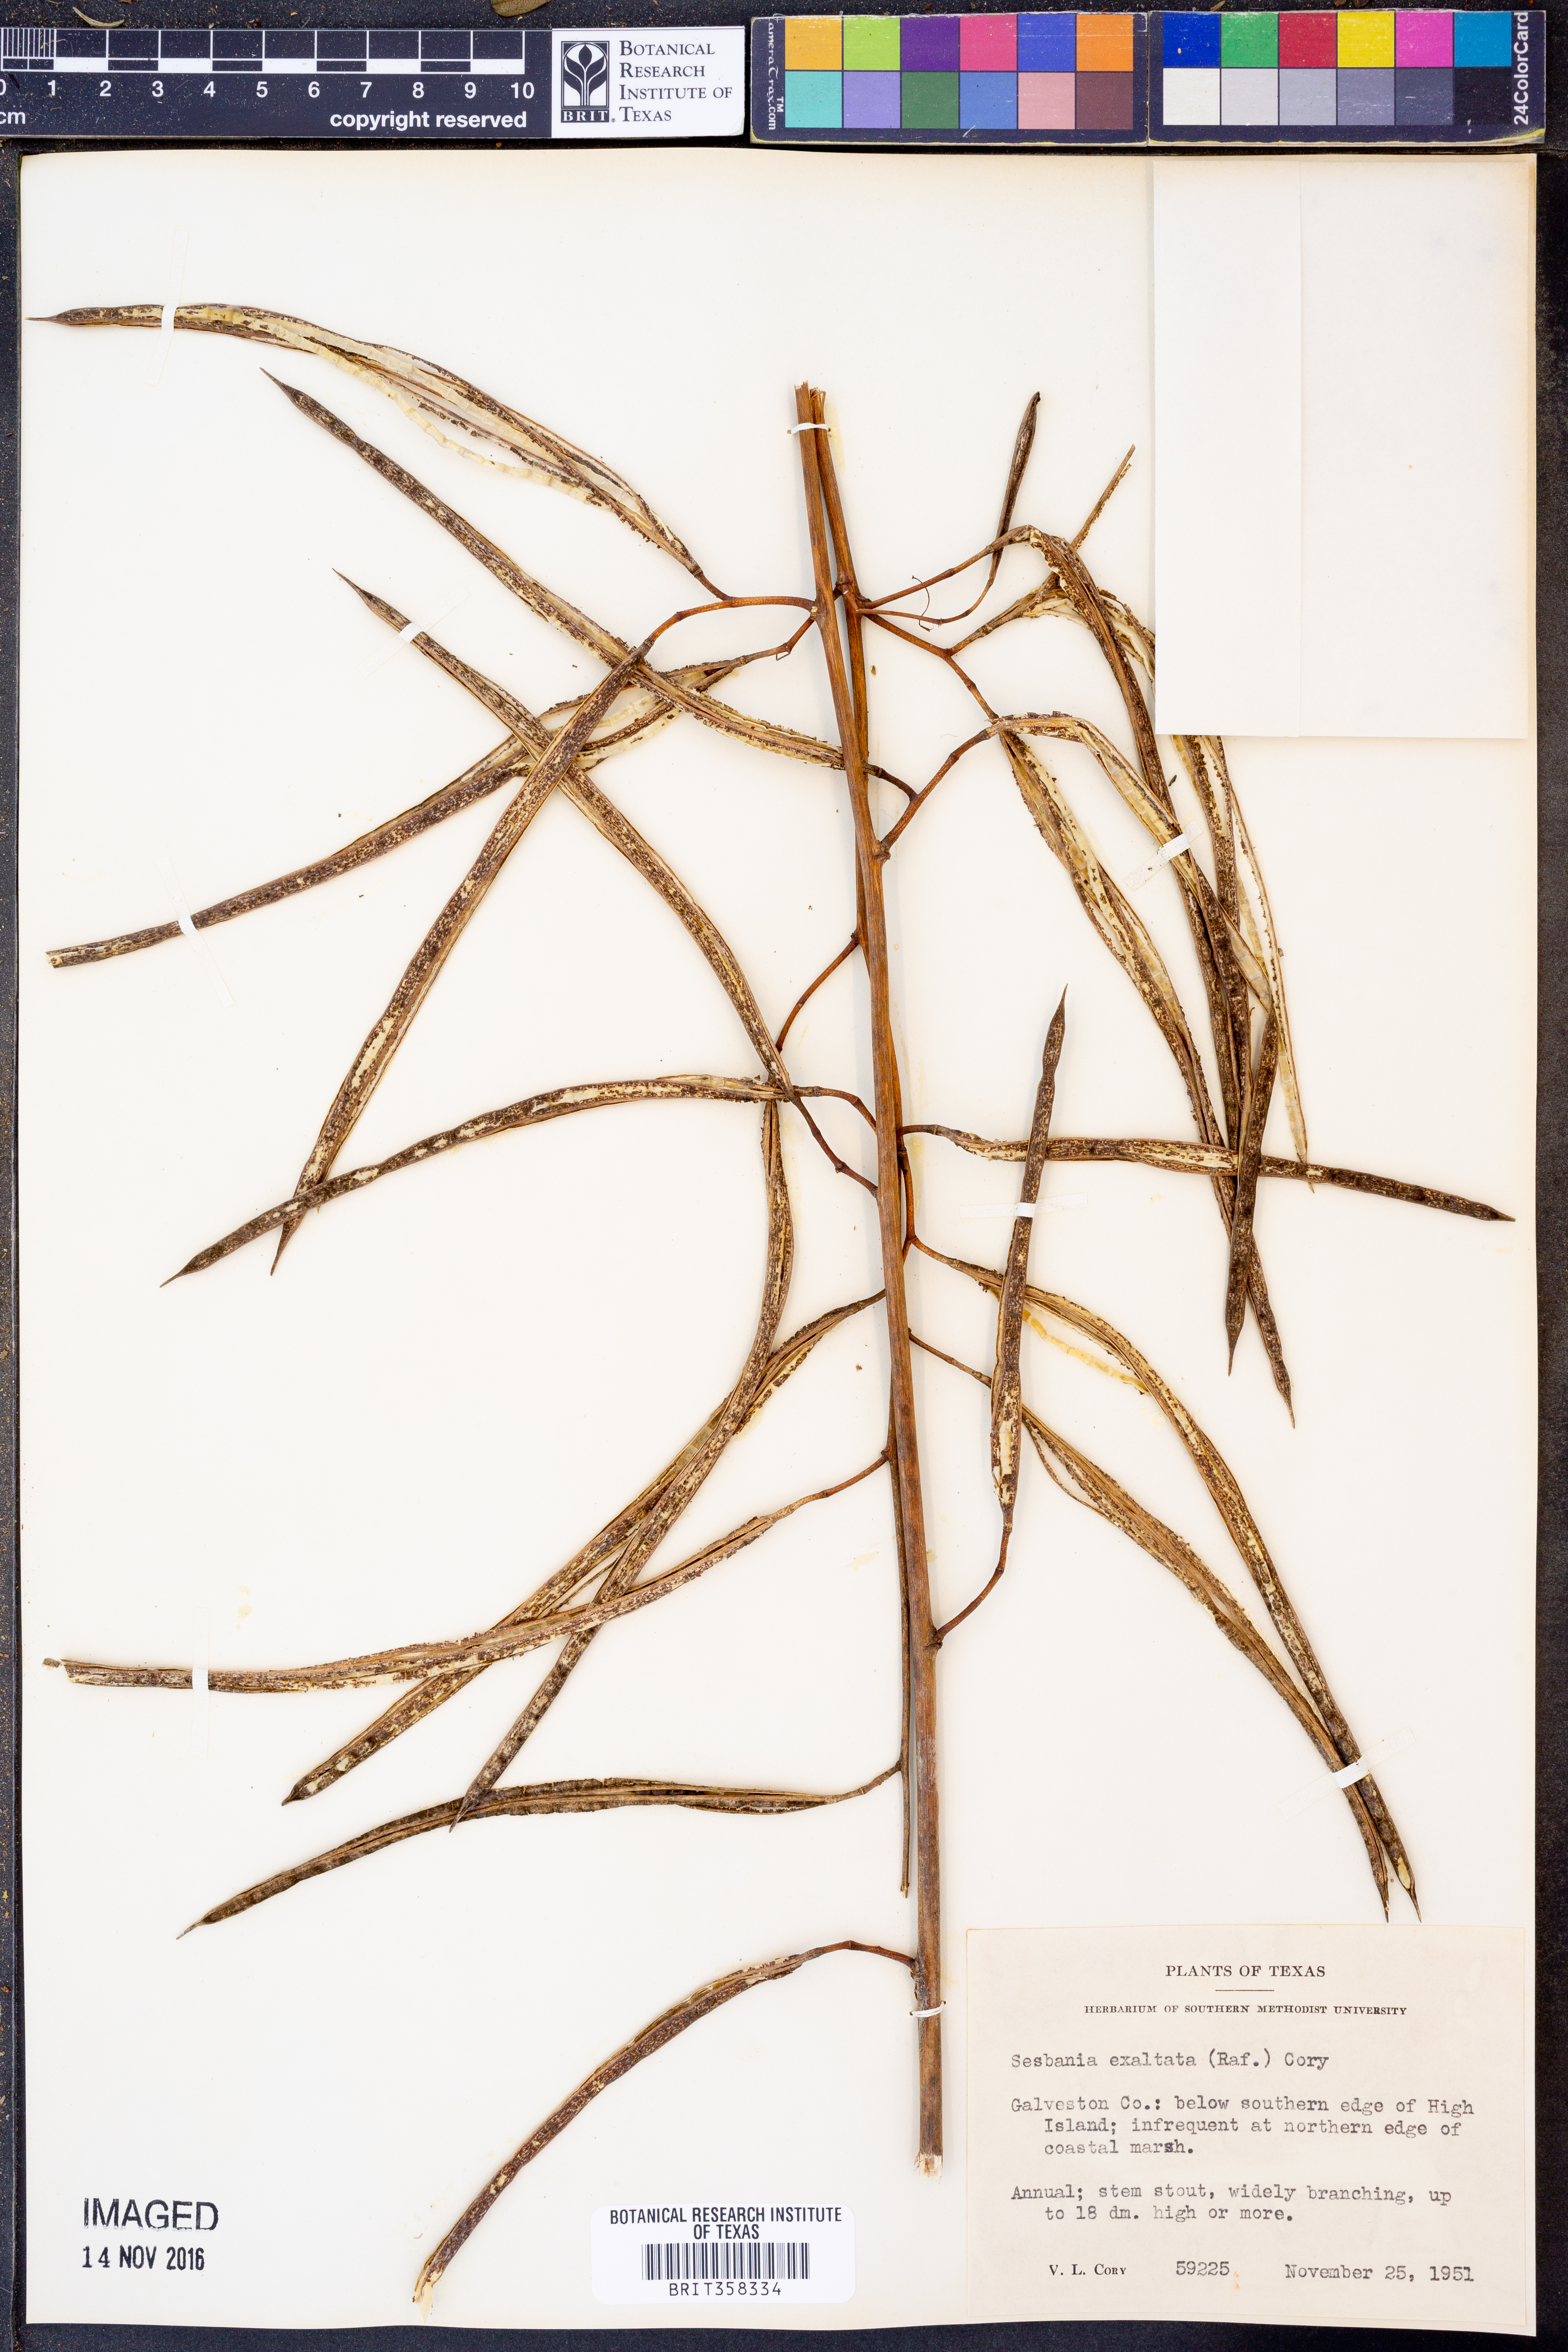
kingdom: Plantae
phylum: Tracheophyta
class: Magnoliopsida
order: Fabales
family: Fabaceae
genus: Sesbania
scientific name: Sesbania herbacea
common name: Bigpod sesbania
